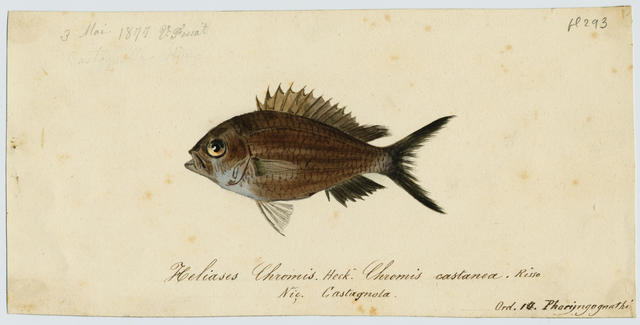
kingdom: Animalia
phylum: Chordata
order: Perciformes
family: Pomacentridae
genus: Chromis
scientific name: Chromis chromis
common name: Damselfish
